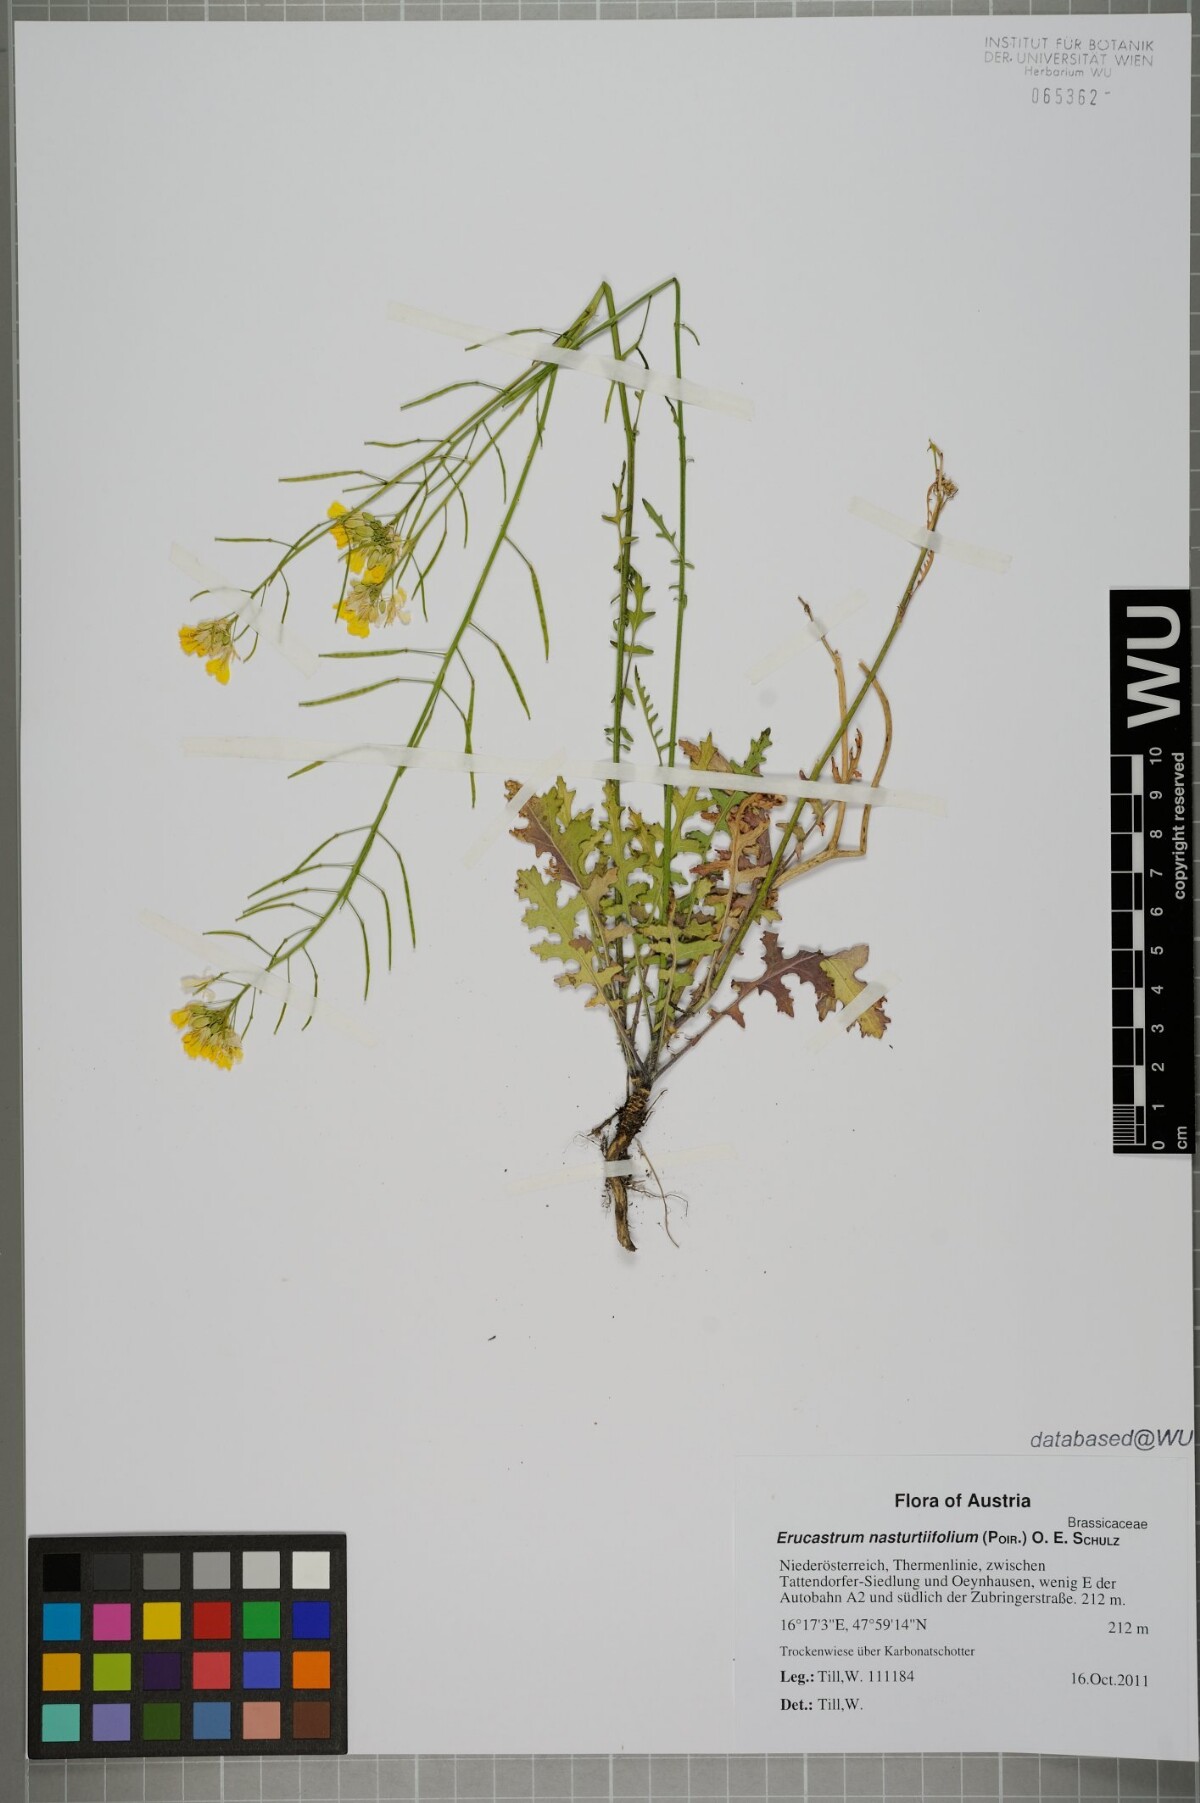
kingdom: Plantae
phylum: Tracheophyta
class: Magnoliopsida
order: Brassicales
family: Brassicaceae
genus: Erucastrum
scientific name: Erucastrum nasturtiifolium
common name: Watercress-leaf rocket
